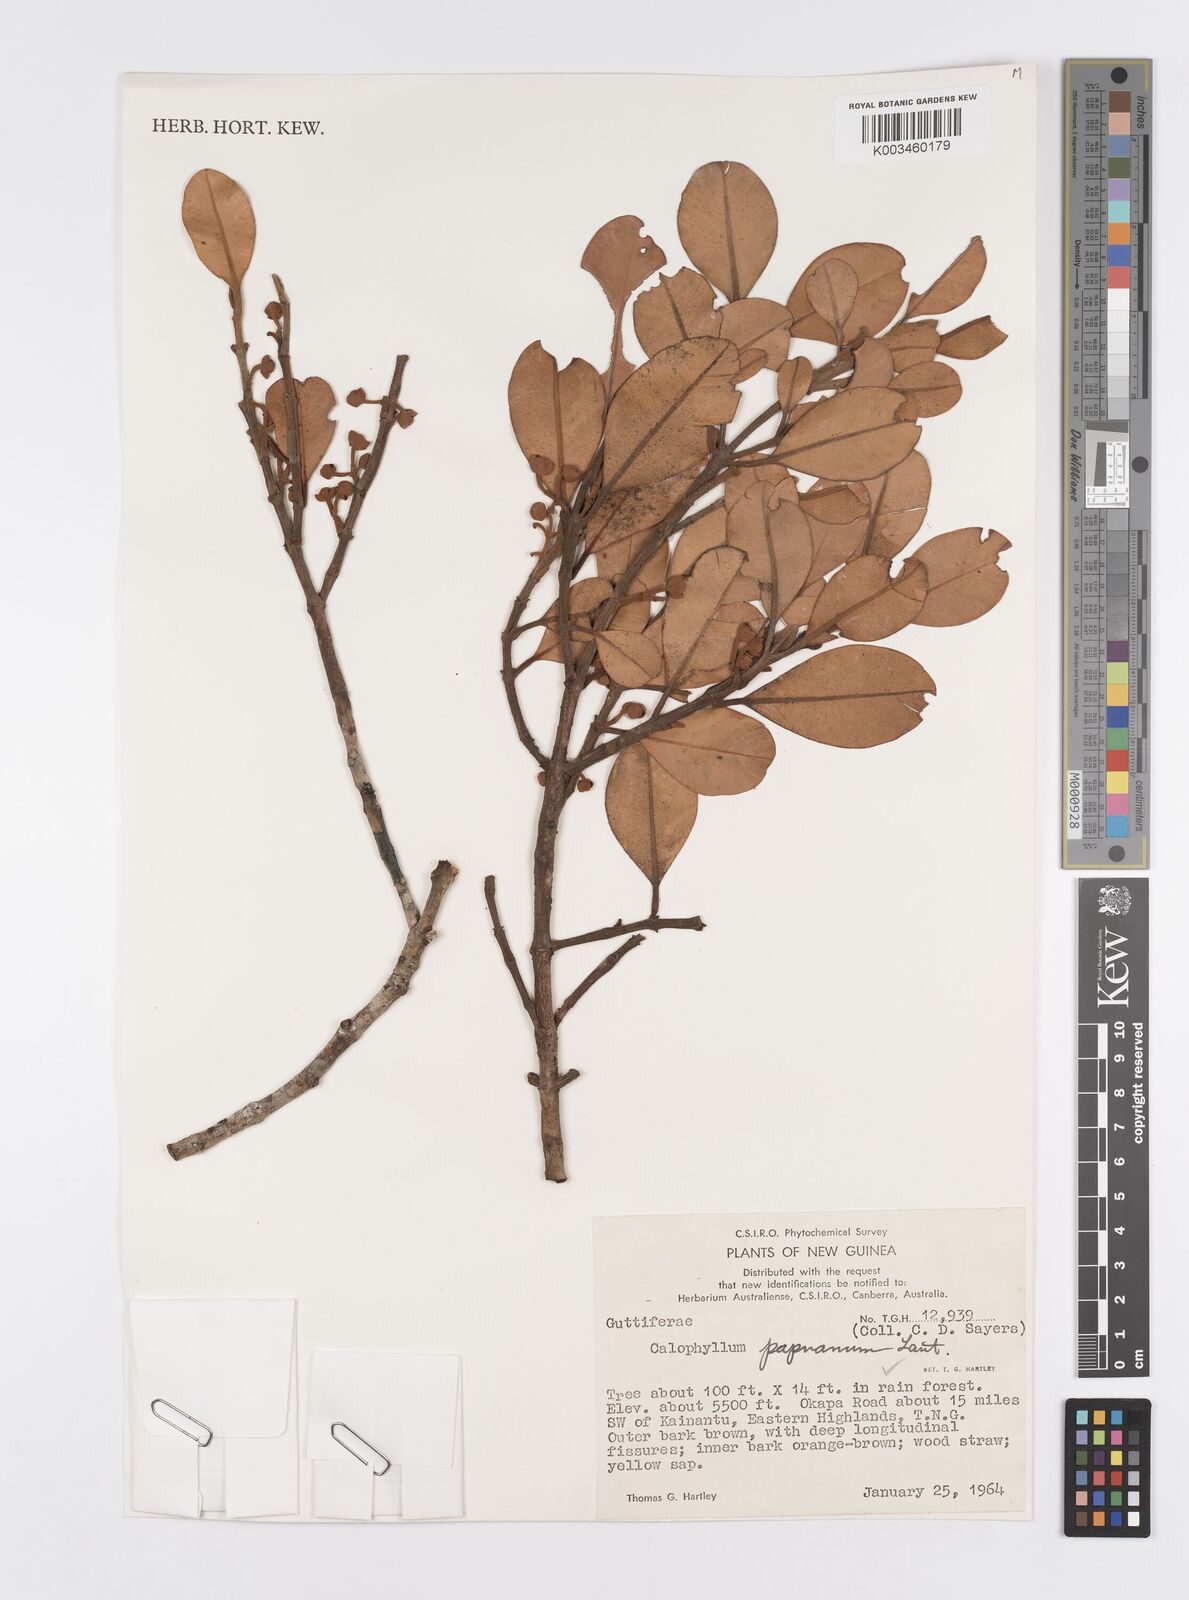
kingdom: Plantae
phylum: Tracheophyta
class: Magnoliopsida
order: Malpighiales
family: Calophyllaceae
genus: Calophyllum
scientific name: Calophyllum papuanum
